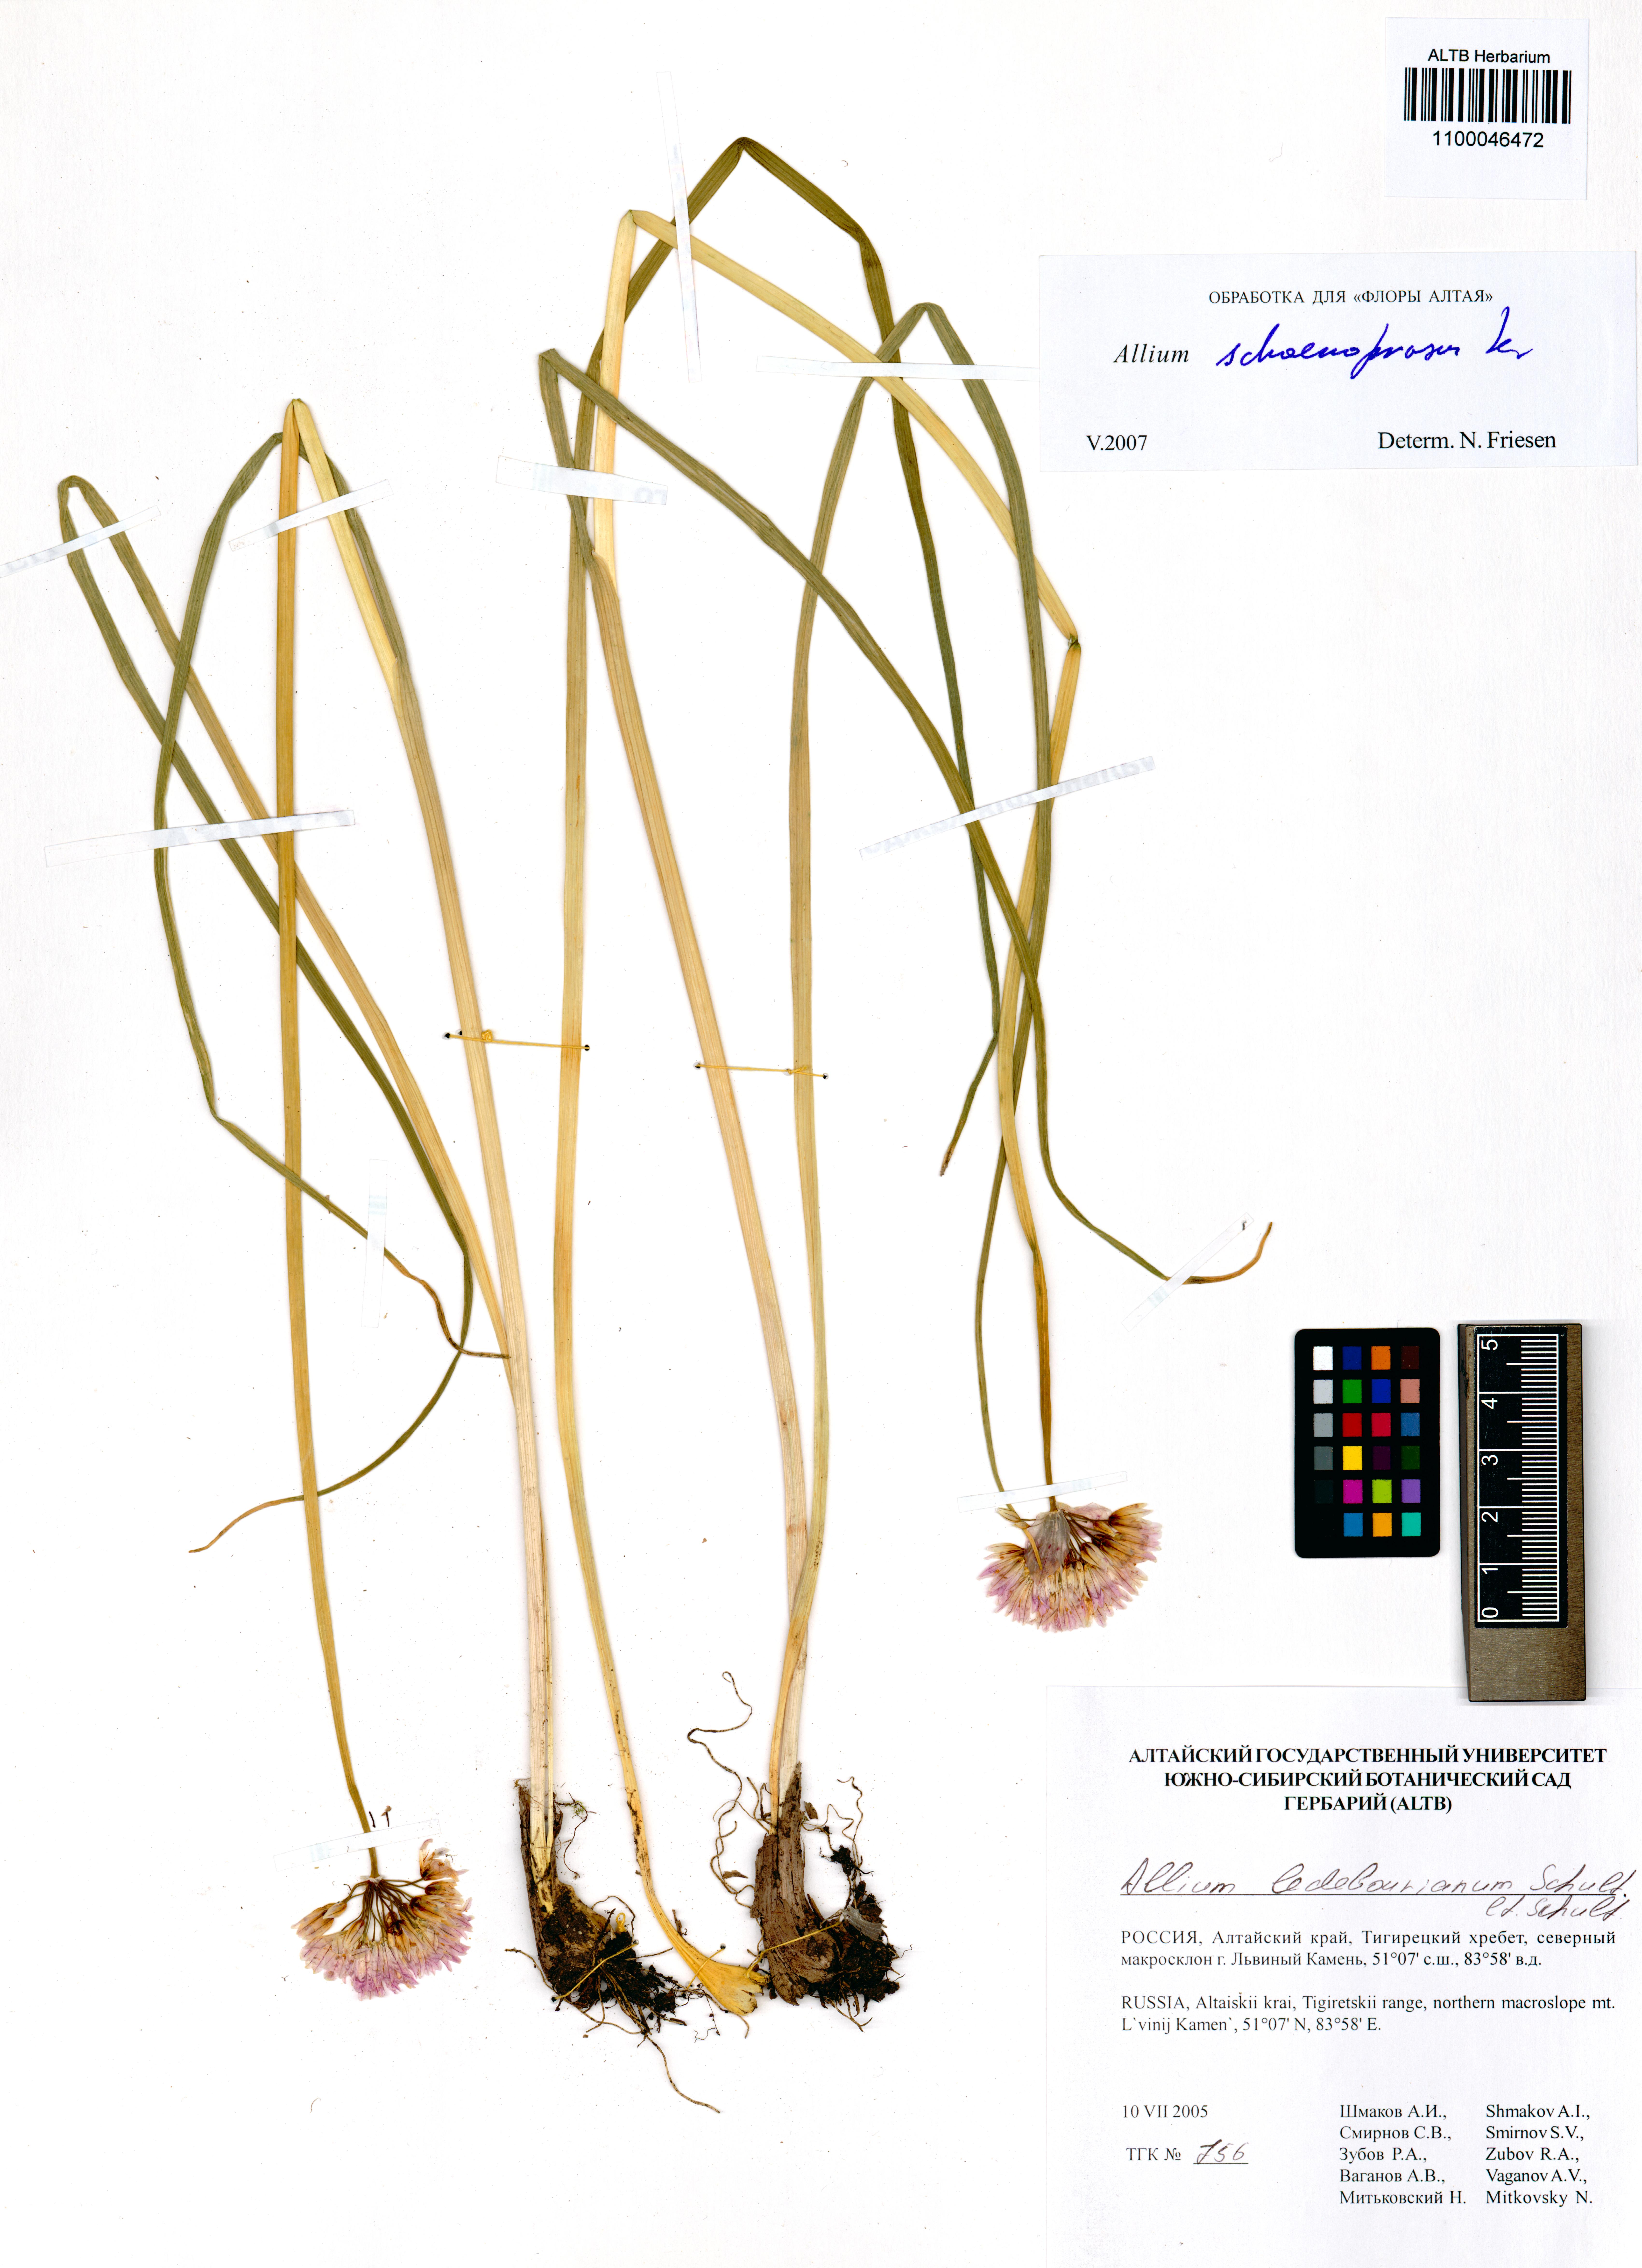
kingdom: Plantae
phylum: Tracheophyta
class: Liliopsida
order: Asparagales
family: Amaryllidaceae
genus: Allium
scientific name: Allium schoenoprasum
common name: Chives
